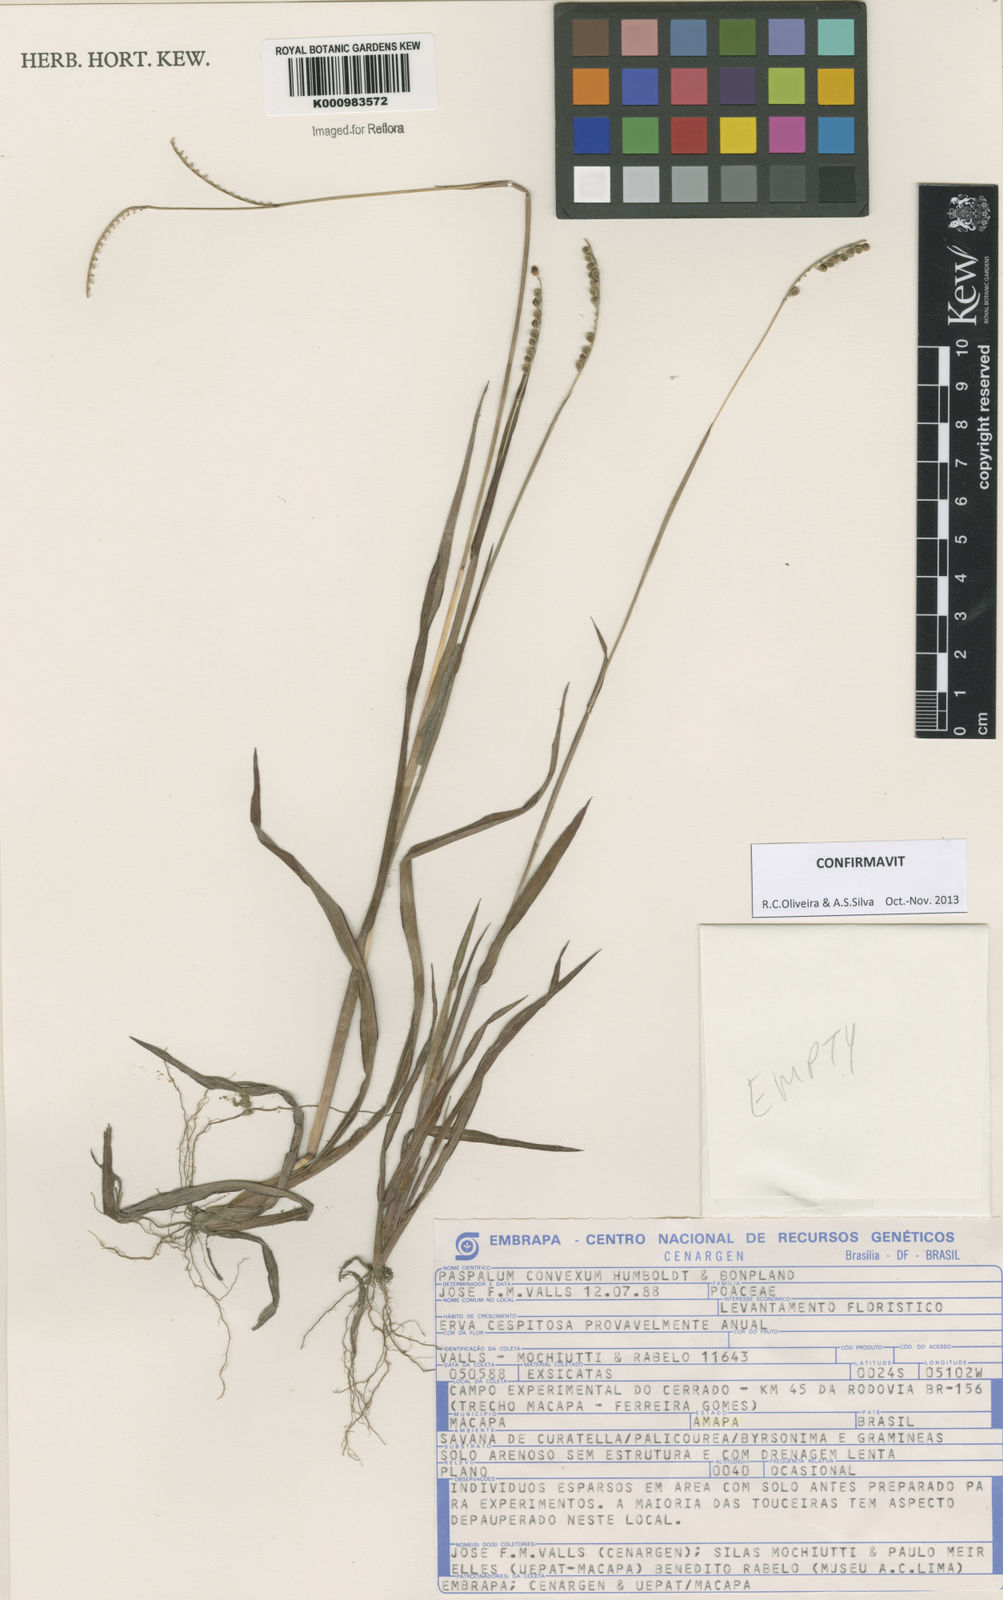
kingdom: Plantae
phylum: Tracheophyta
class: Liliopsida
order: Poales
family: Poaceae
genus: Paspalum
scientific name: Paspalum
